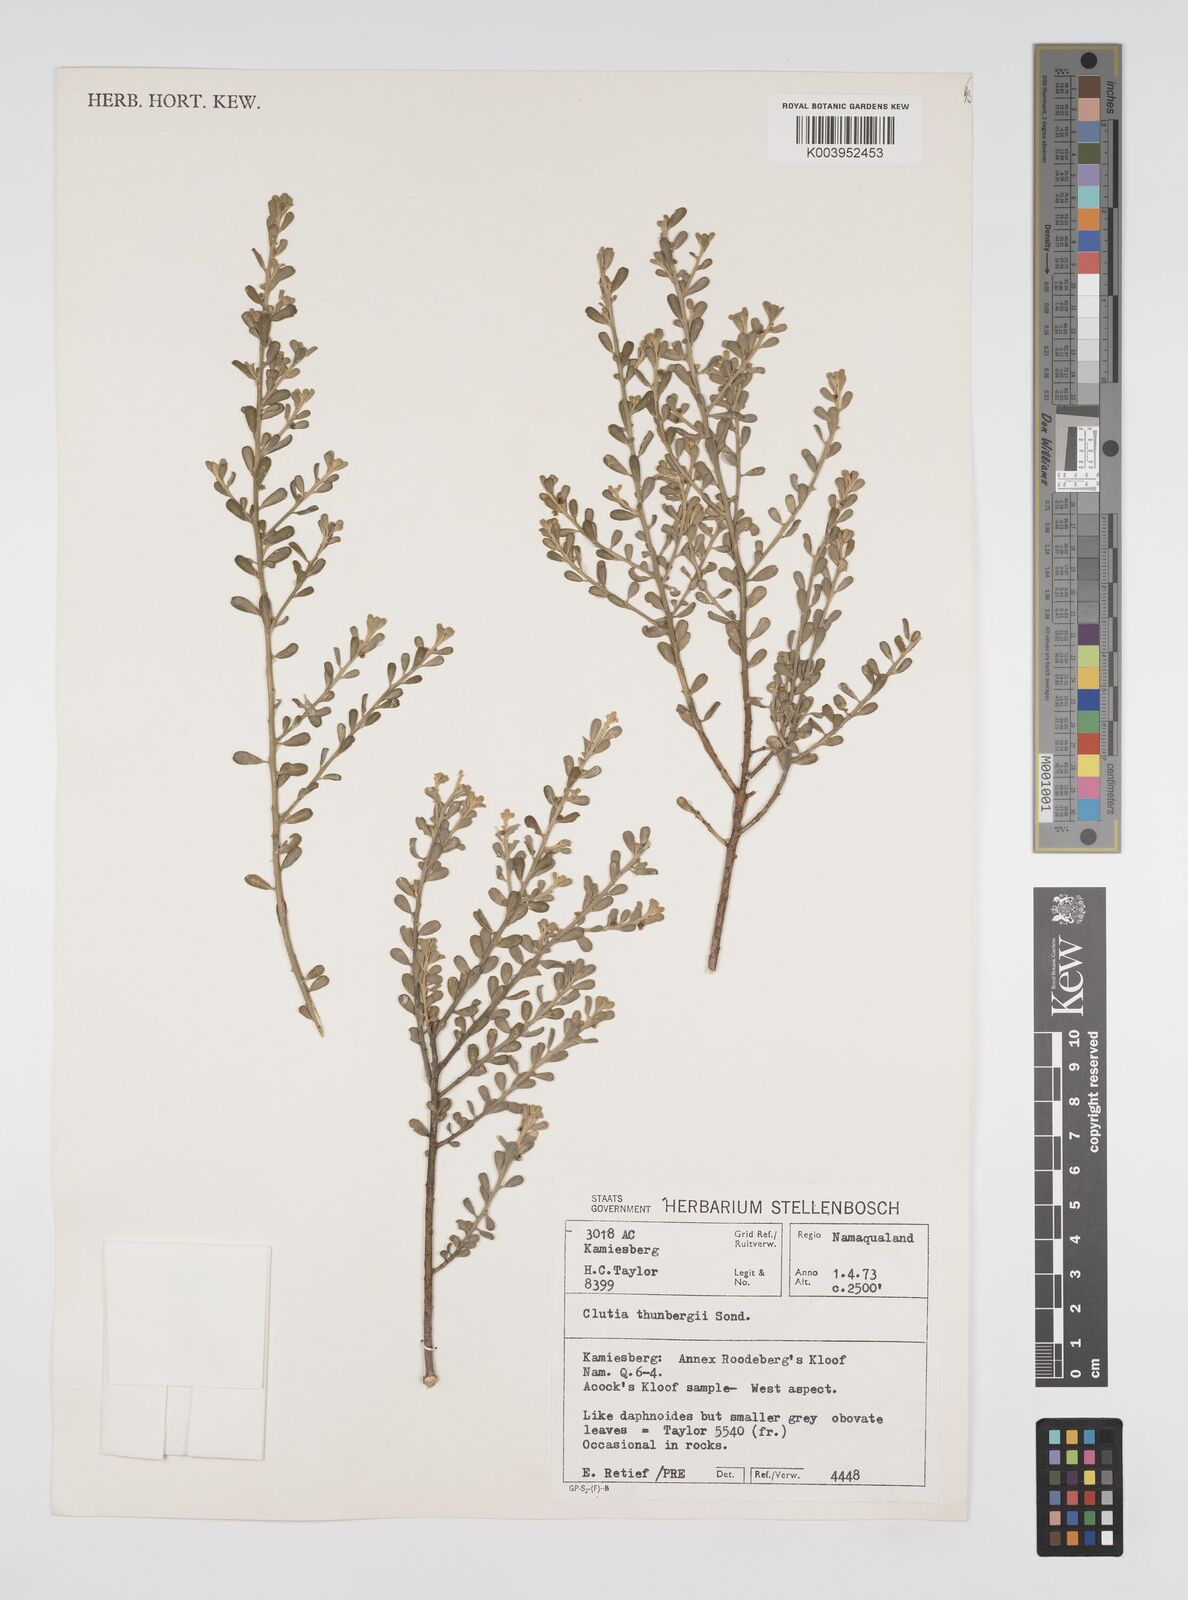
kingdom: Plantae
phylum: Tracheophyta
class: Magnoliopsida
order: Malpighiales
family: Peraceae
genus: Clutia
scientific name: Clutia thunbergii
